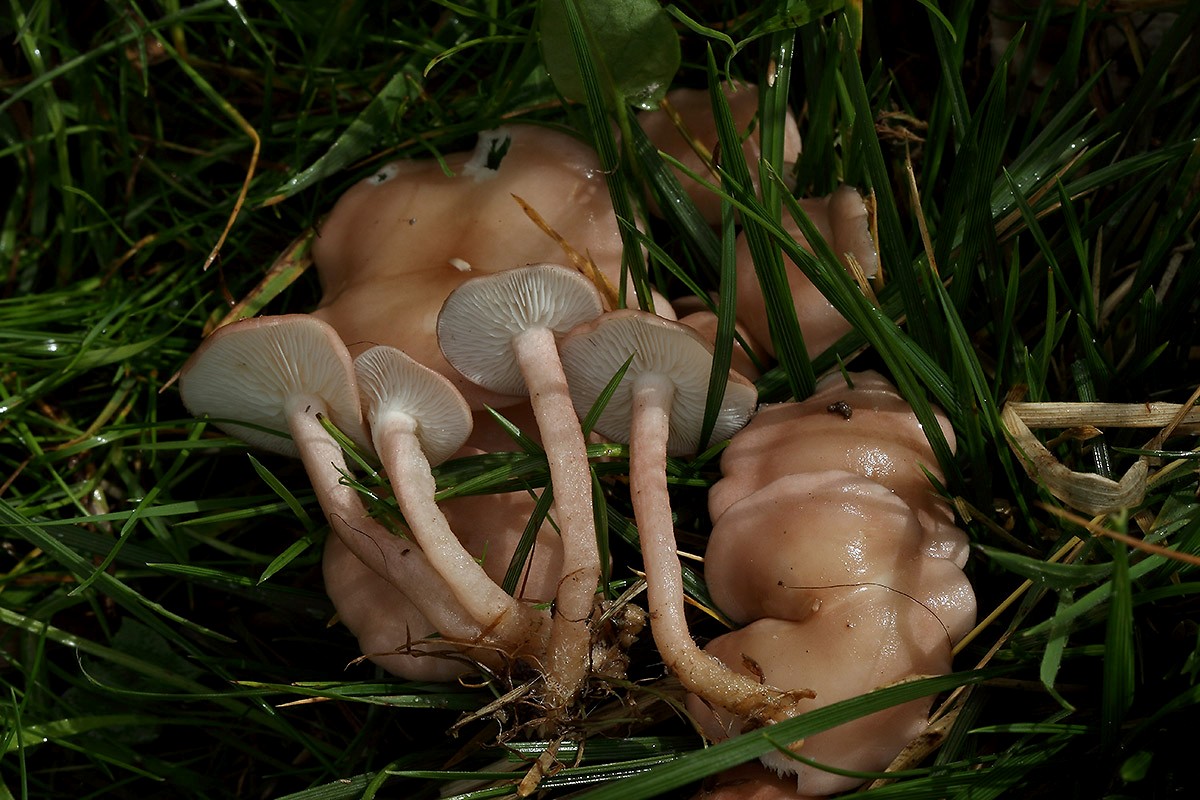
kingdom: Fungi
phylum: Basidiomycota
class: Agaricomycetes
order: Agaricales
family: Lyophyllaceae
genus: Calocybe
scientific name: Calocybe carnea
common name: rosa fagerhat
